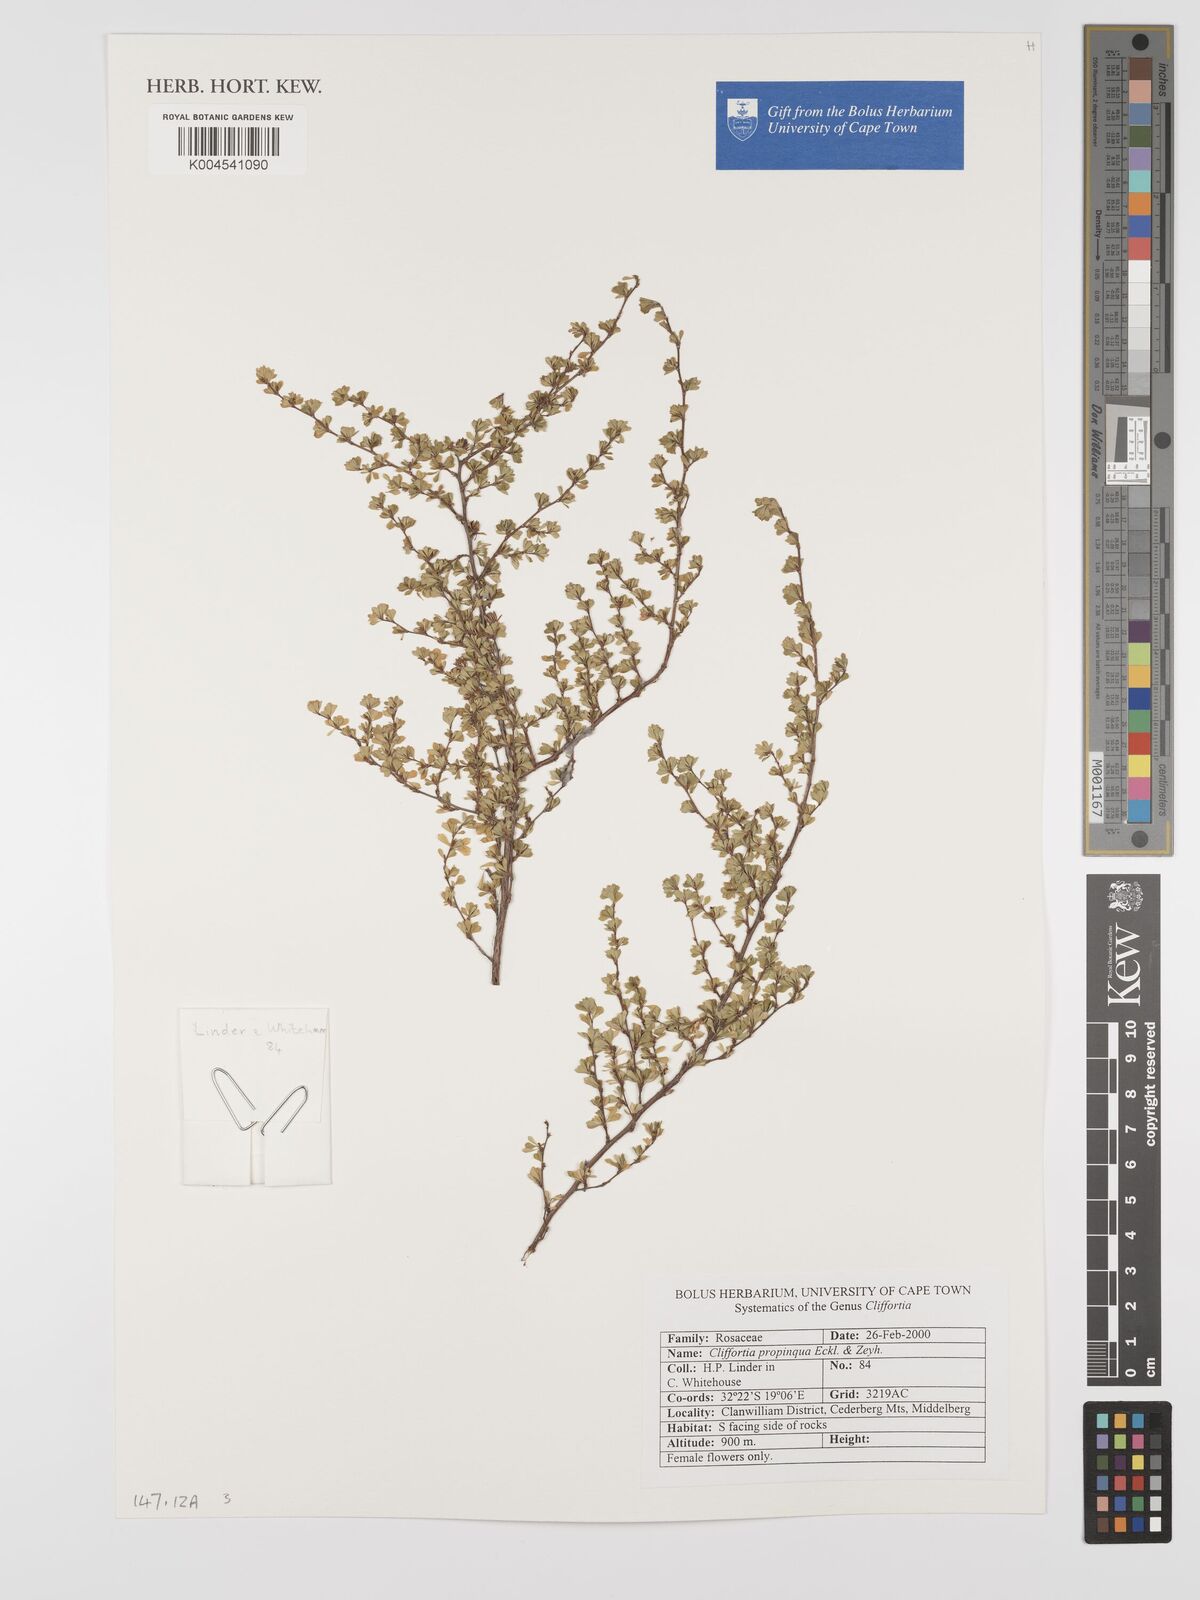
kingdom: Plantae
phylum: Tracheophyta
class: Magnoliopsida
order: Rosales
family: Rosaceae
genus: Cliffortia
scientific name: Cliffortia propinqua
